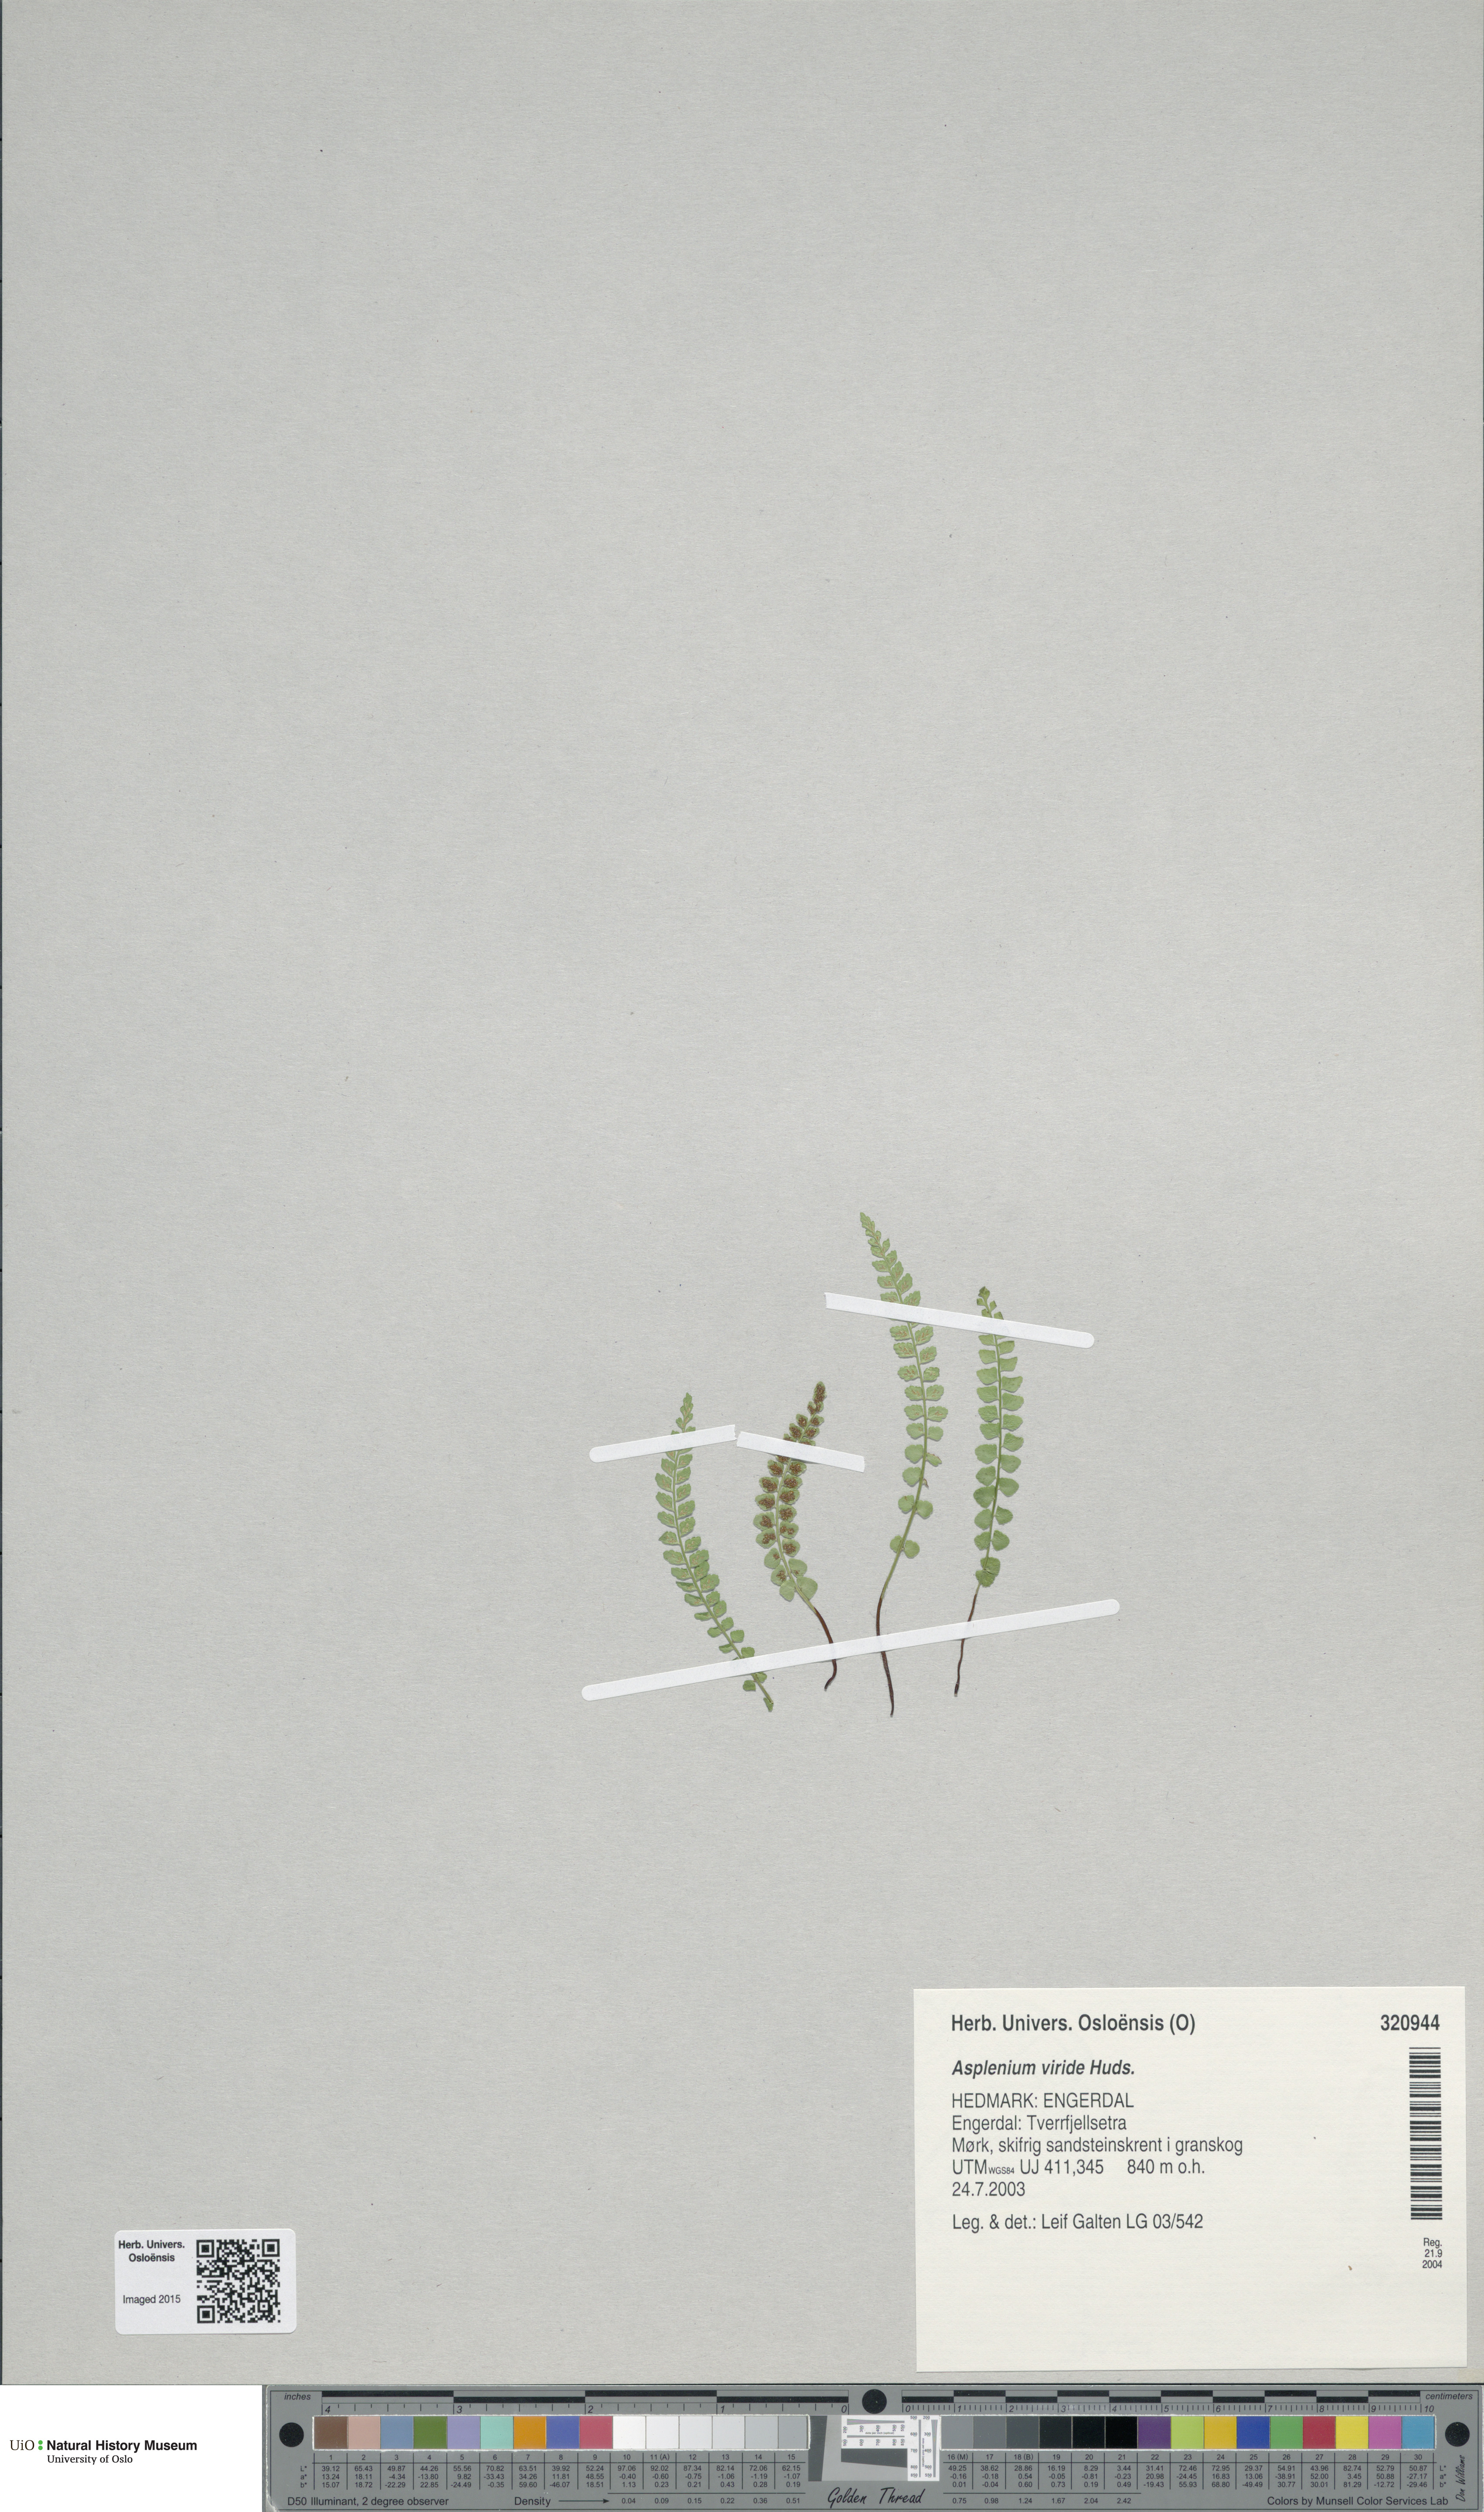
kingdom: Plantae
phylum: Tracheophyta
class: Polypodiopsida
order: Polypodiales
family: Aspleniaceae
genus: Asplenium
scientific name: Asplenium viride
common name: Green spleenwort
